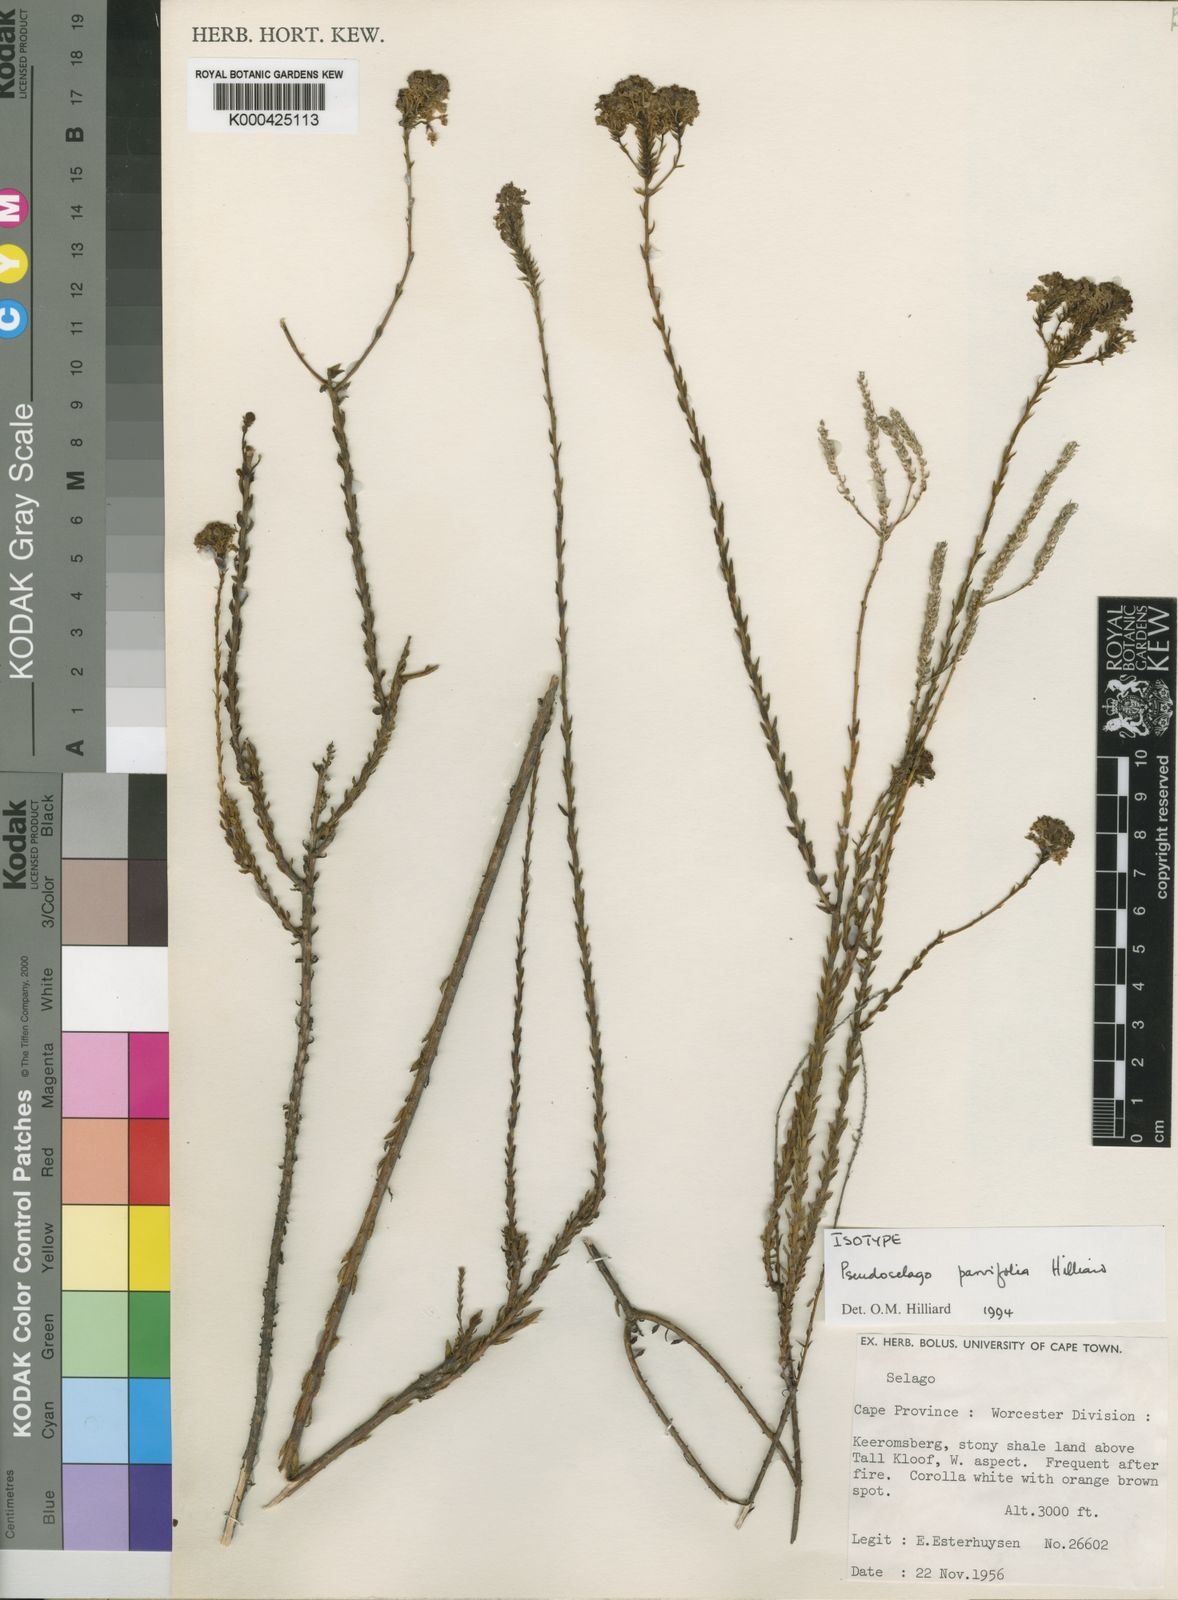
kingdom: Plantae
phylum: Tracheophyta
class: Magnoliopsida
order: Lamiales
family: Scrophulariaceae
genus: Pseudoselago
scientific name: Pseudoselago parvifolia
